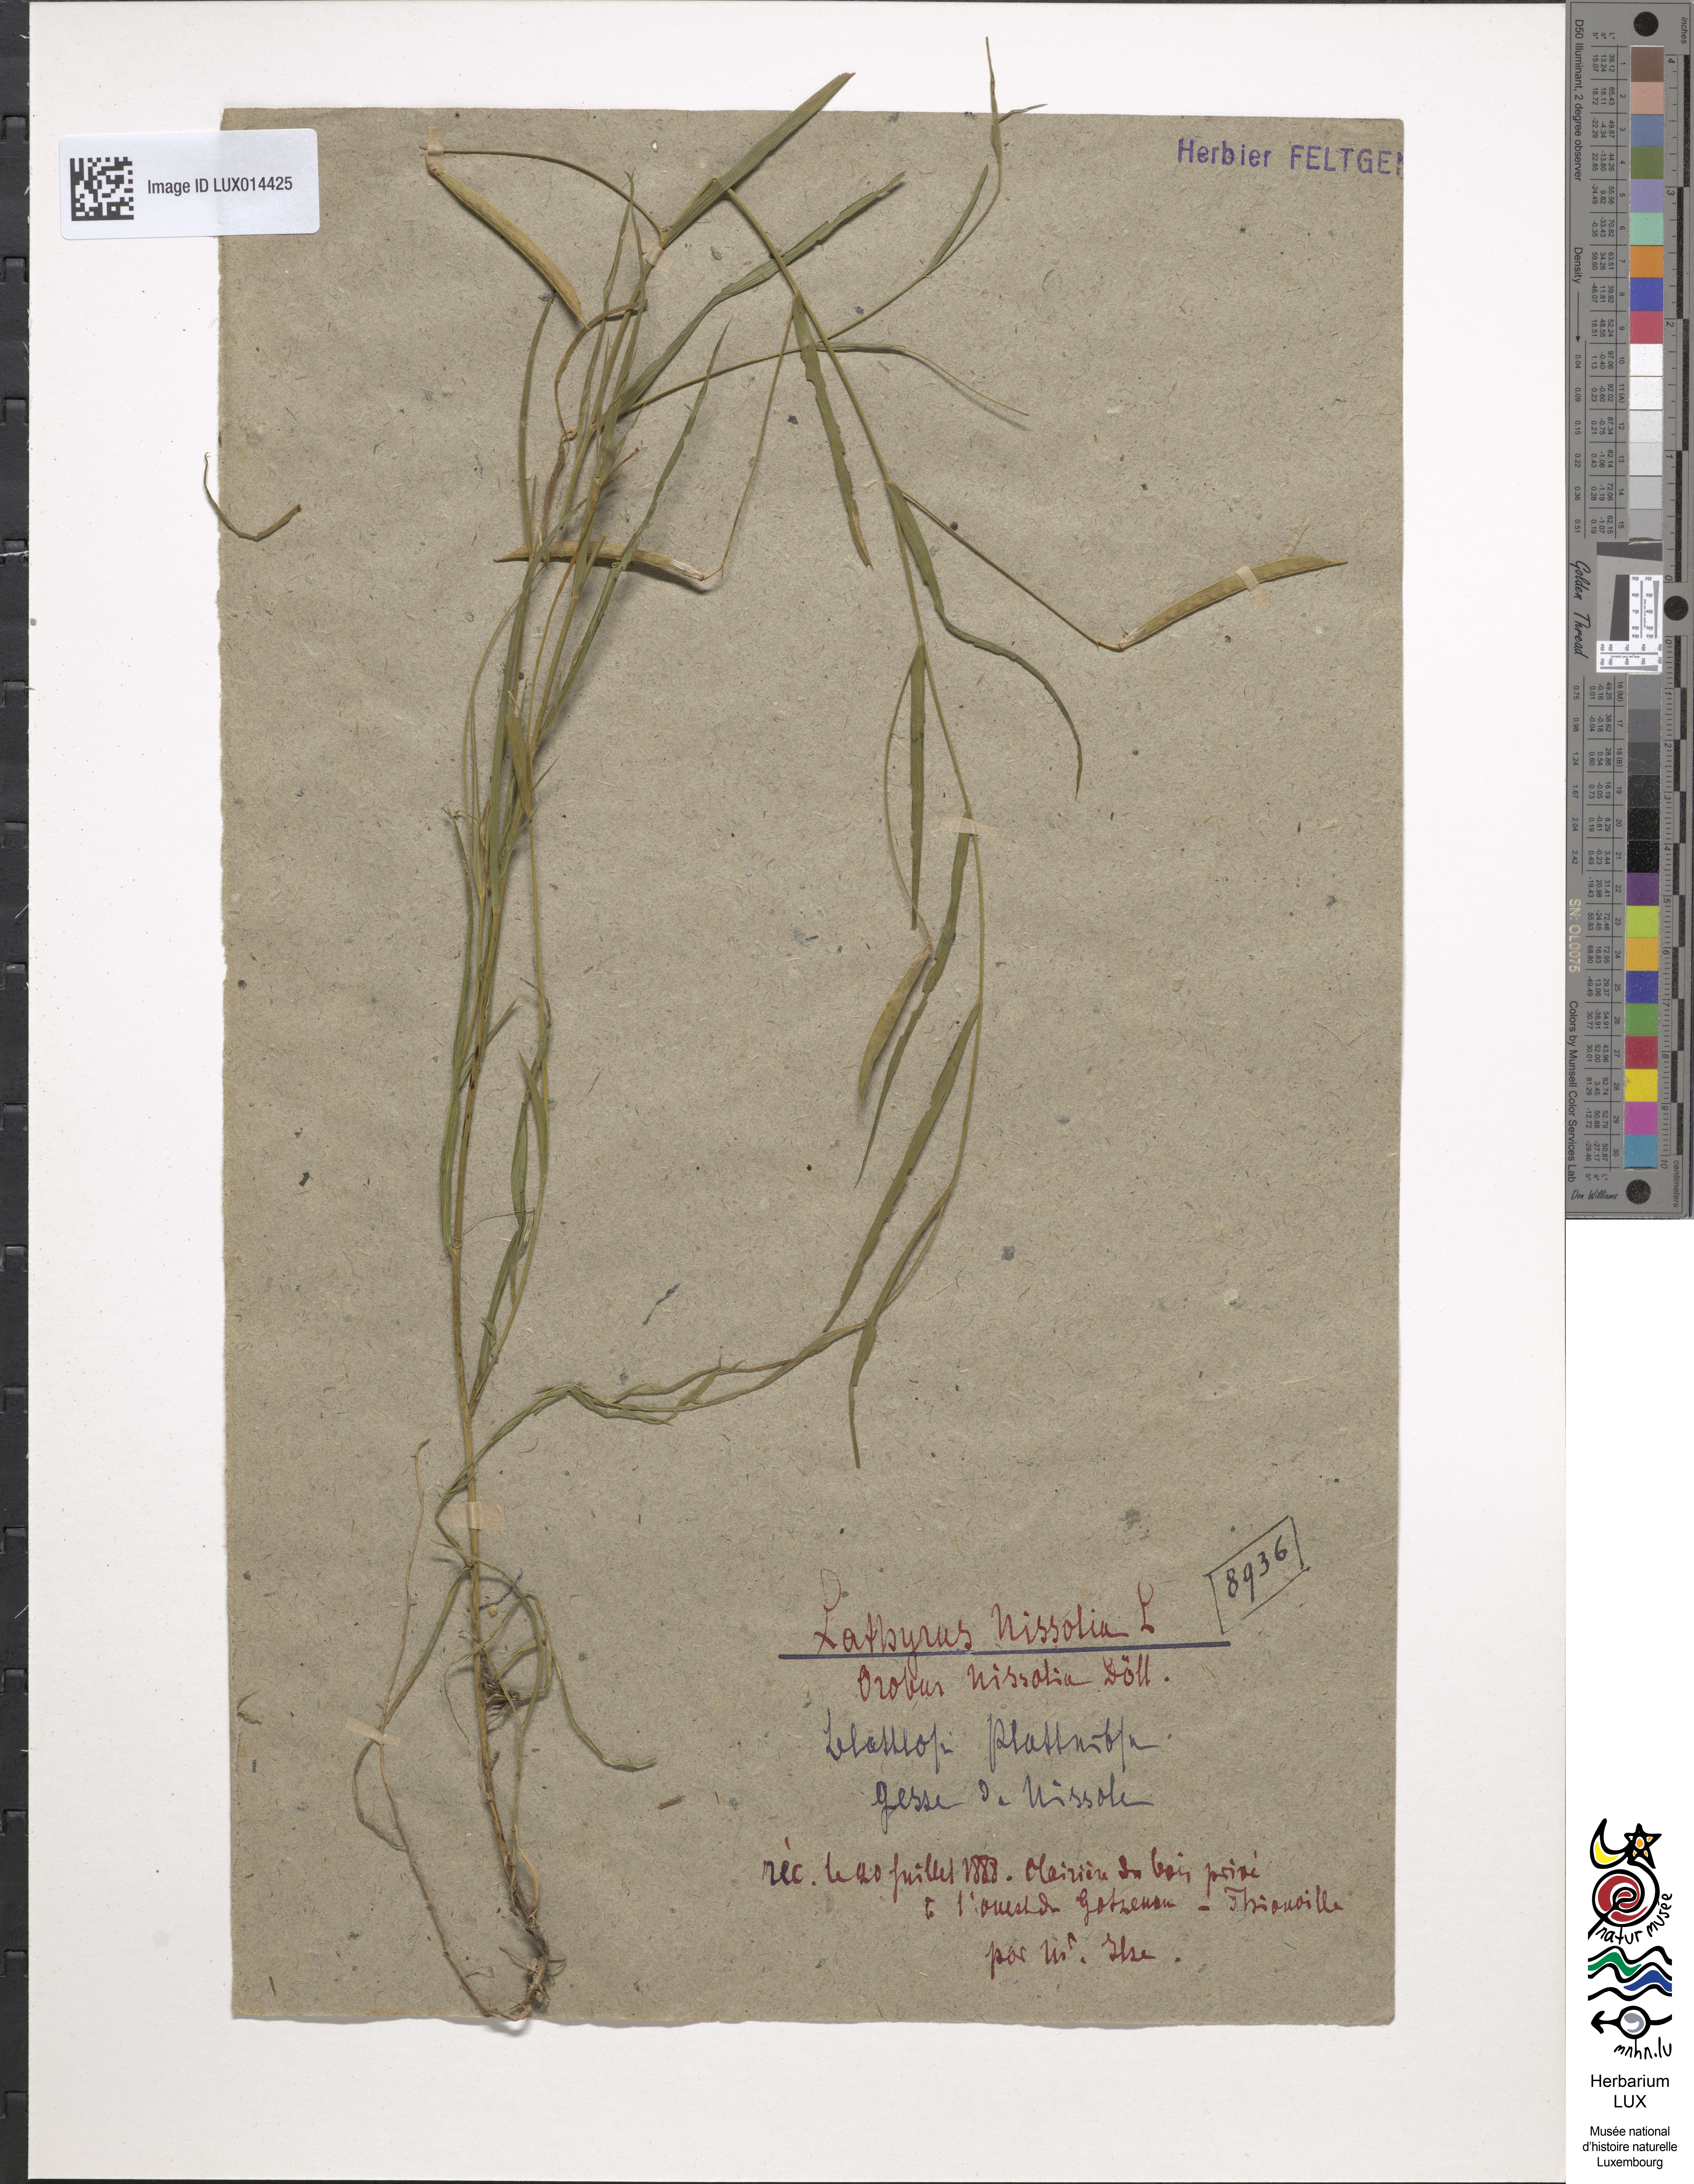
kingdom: Plantae
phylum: Tracheophyta
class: Magnoliopsida
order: Fabales
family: Fabaceae
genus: Lathyrus
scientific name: Lathyrus nissolia
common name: Grass vetchling
